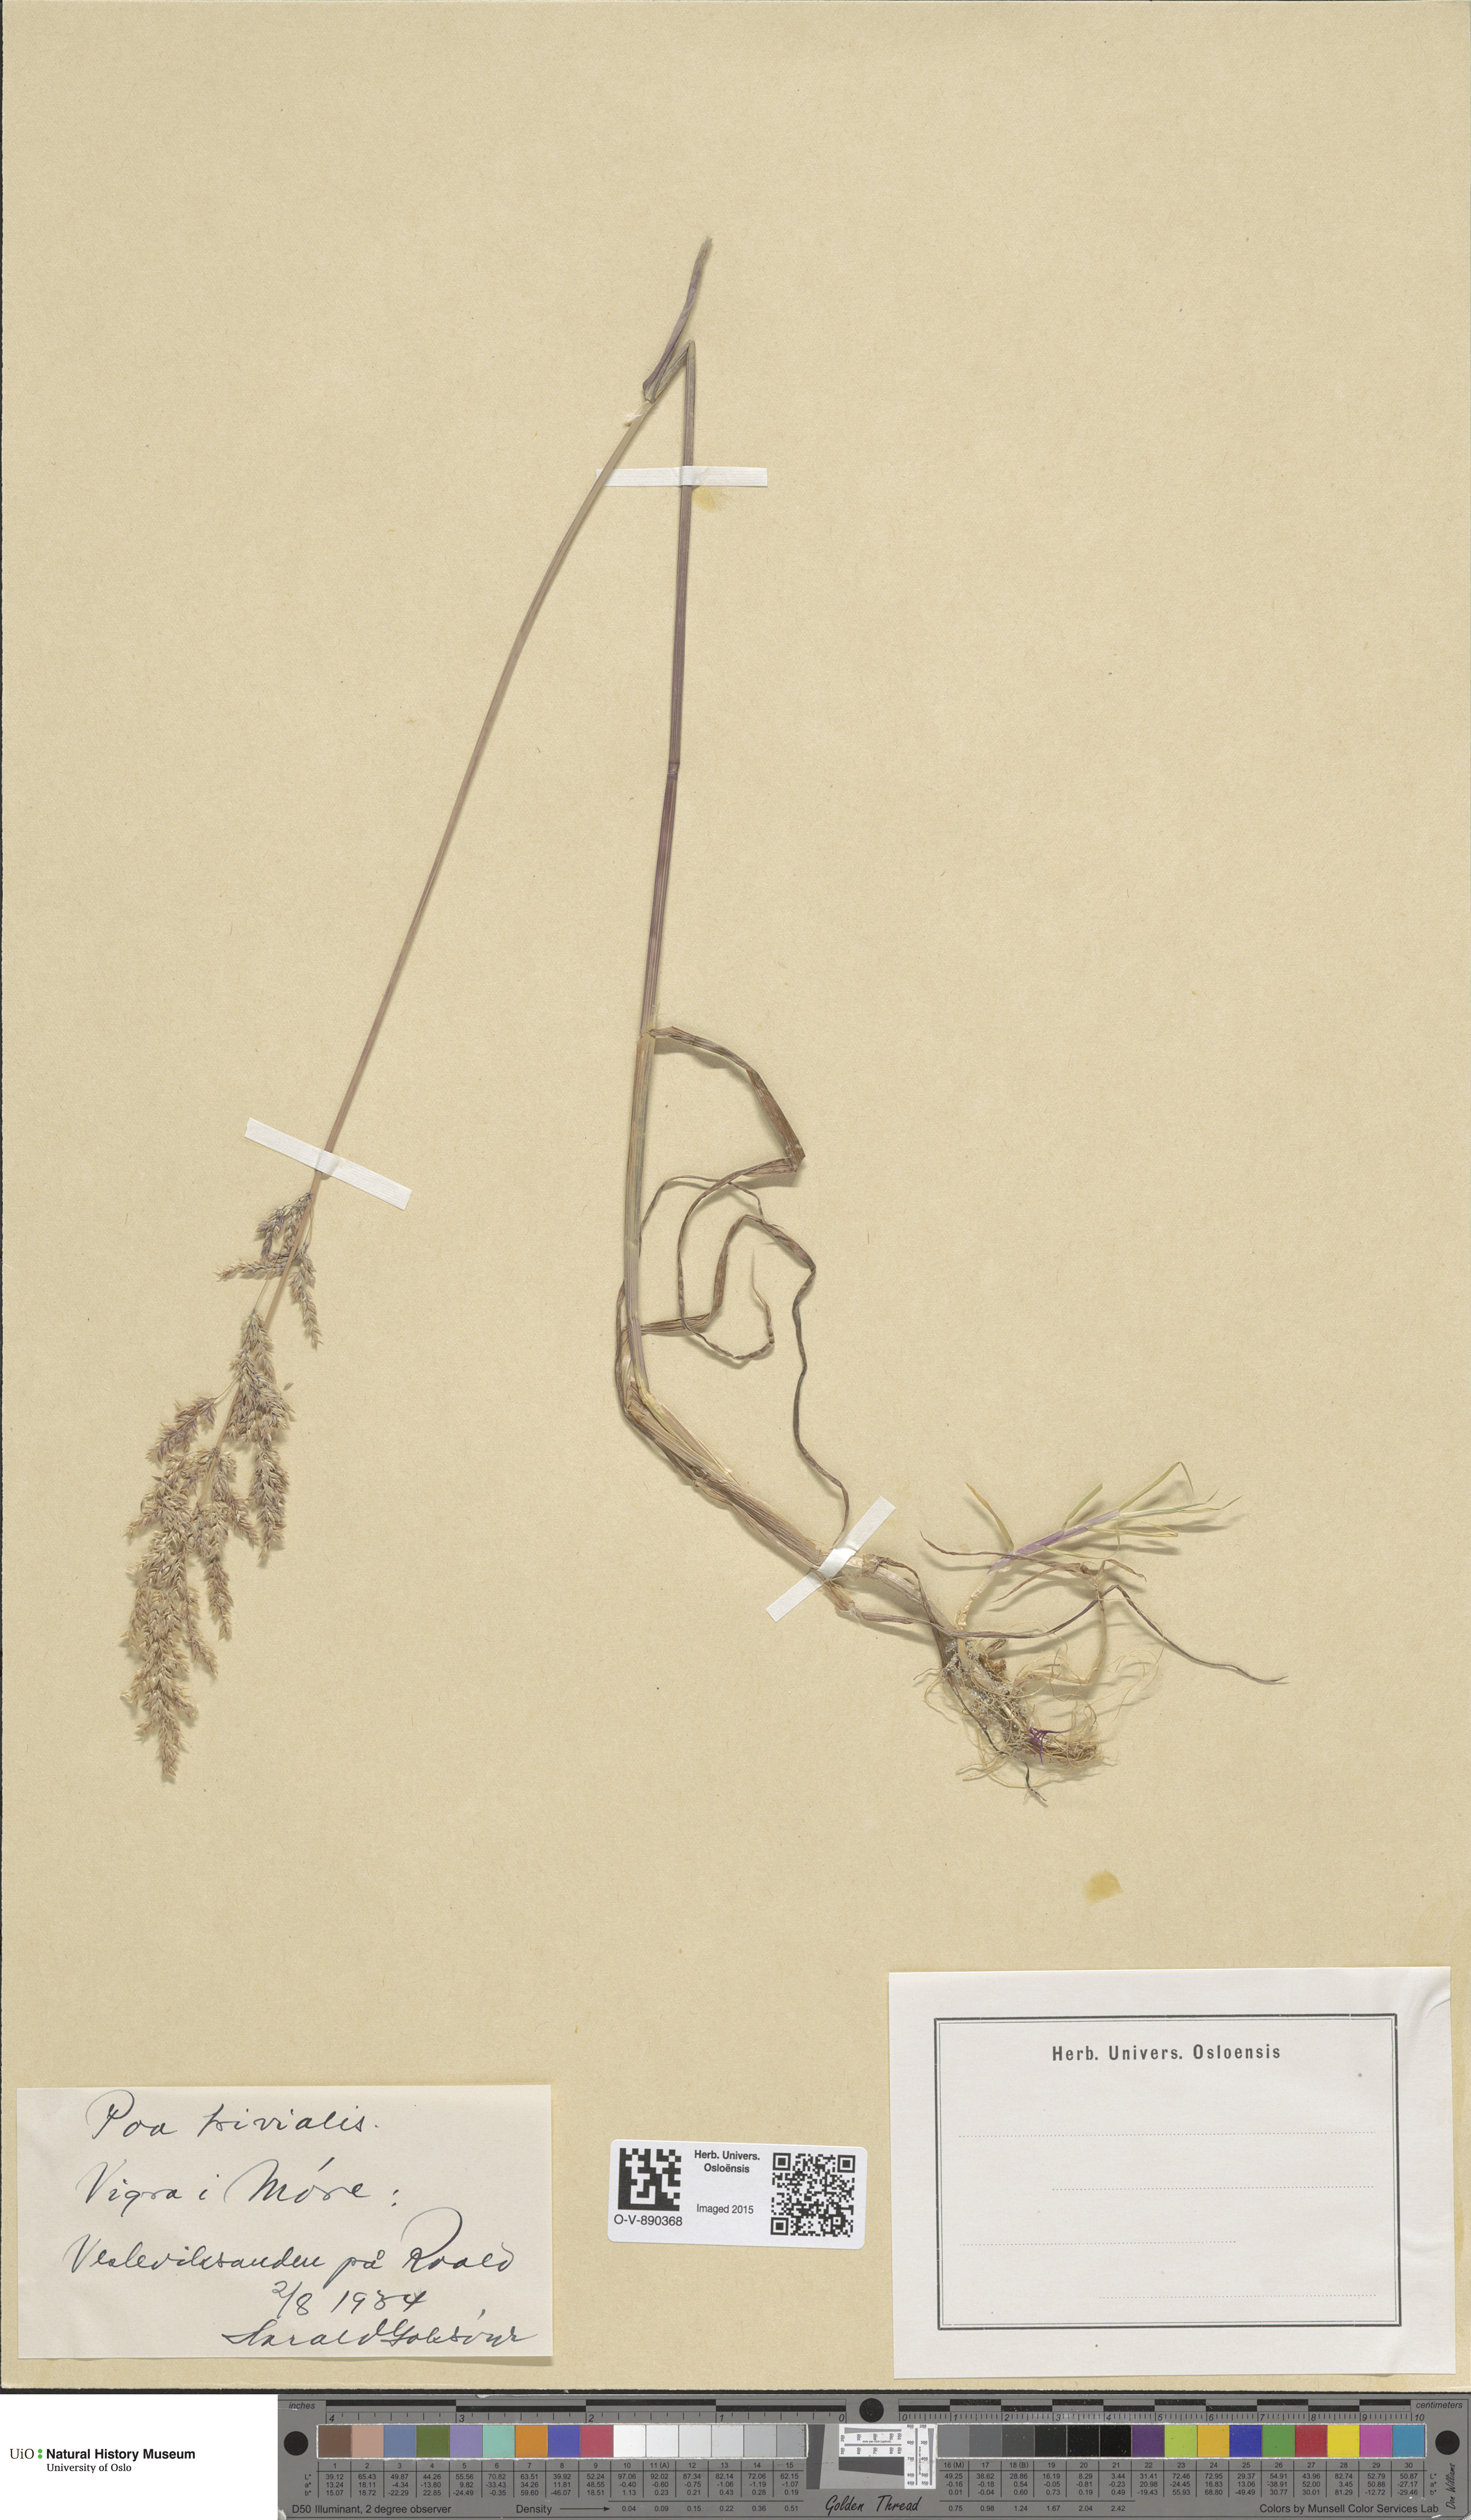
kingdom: Plantae
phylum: Tracheophyta
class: Liliopsida
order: Poales
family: Poaceae
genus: Poa
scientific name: Poa trivialis
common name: Rough bluegrass
